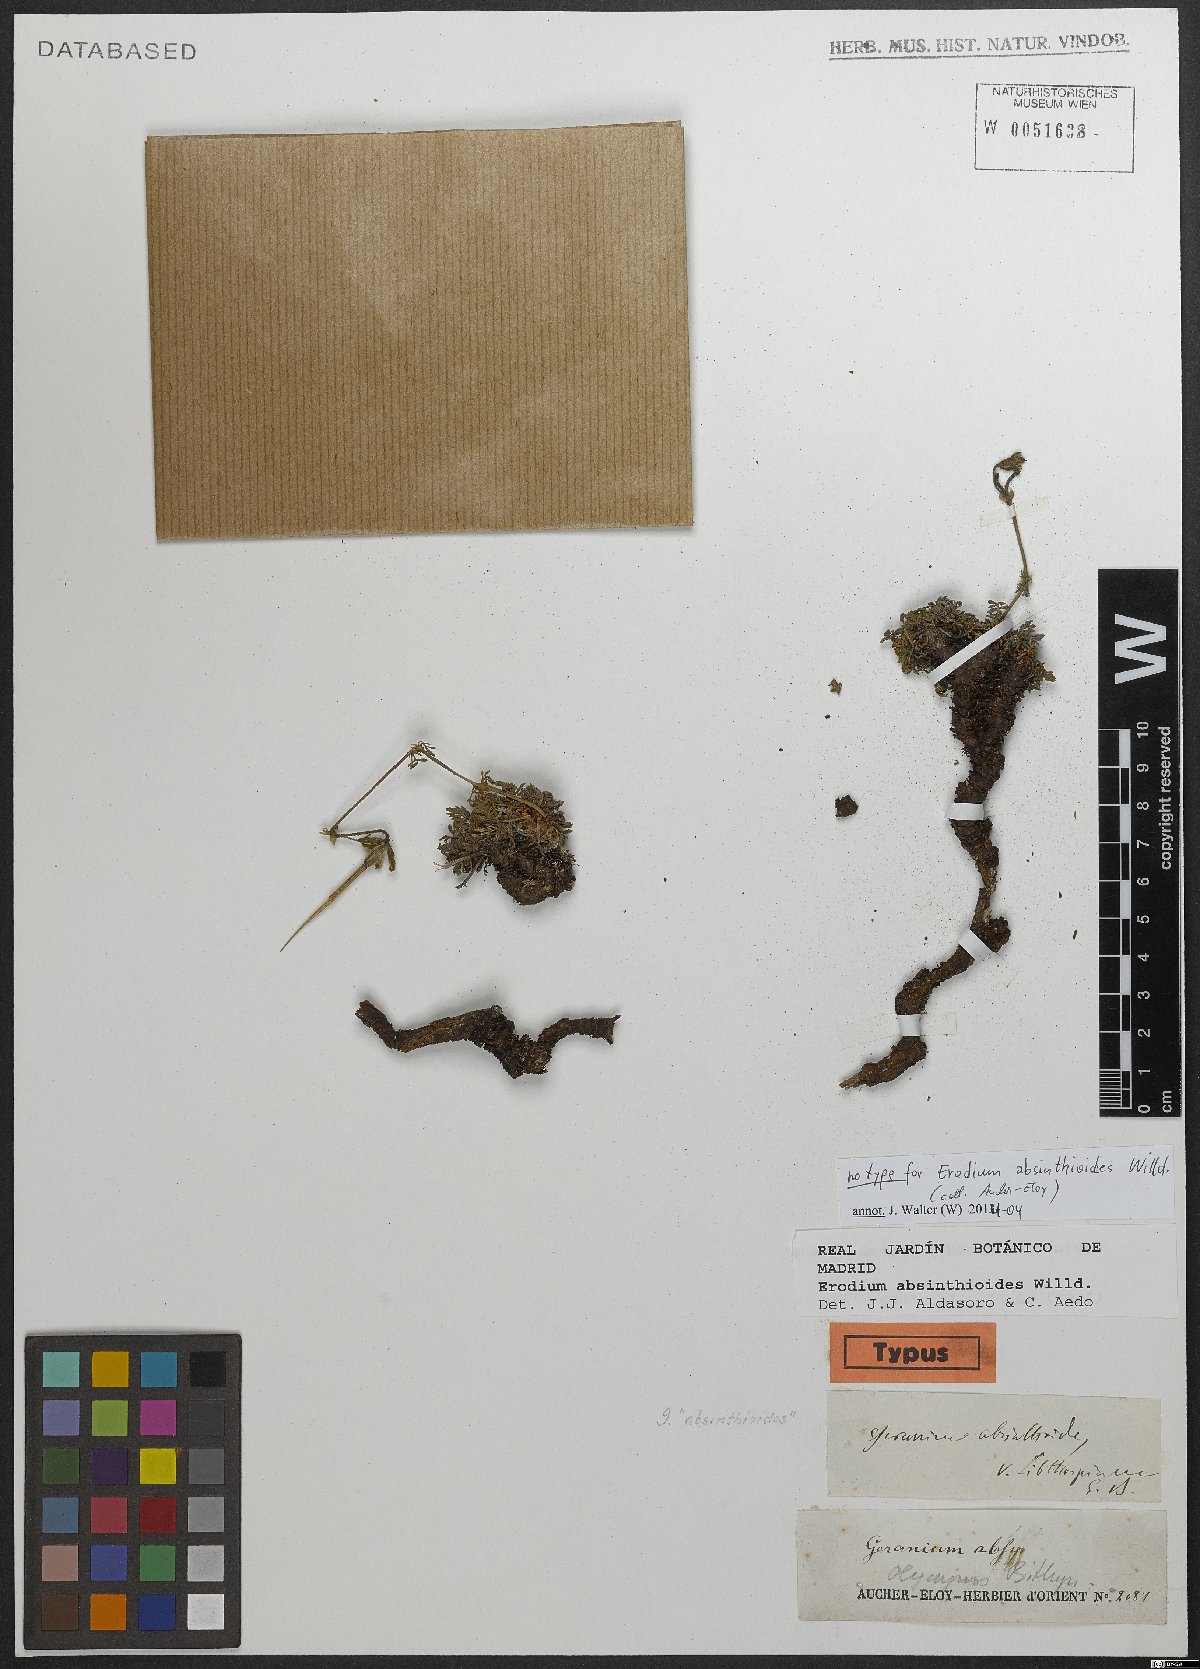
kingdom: Plantae
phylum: Tracheophyta
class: Magnoliopsida
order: Geraniales
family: Geraniaceae
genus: Erodium
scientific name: Erodium absinthoides
